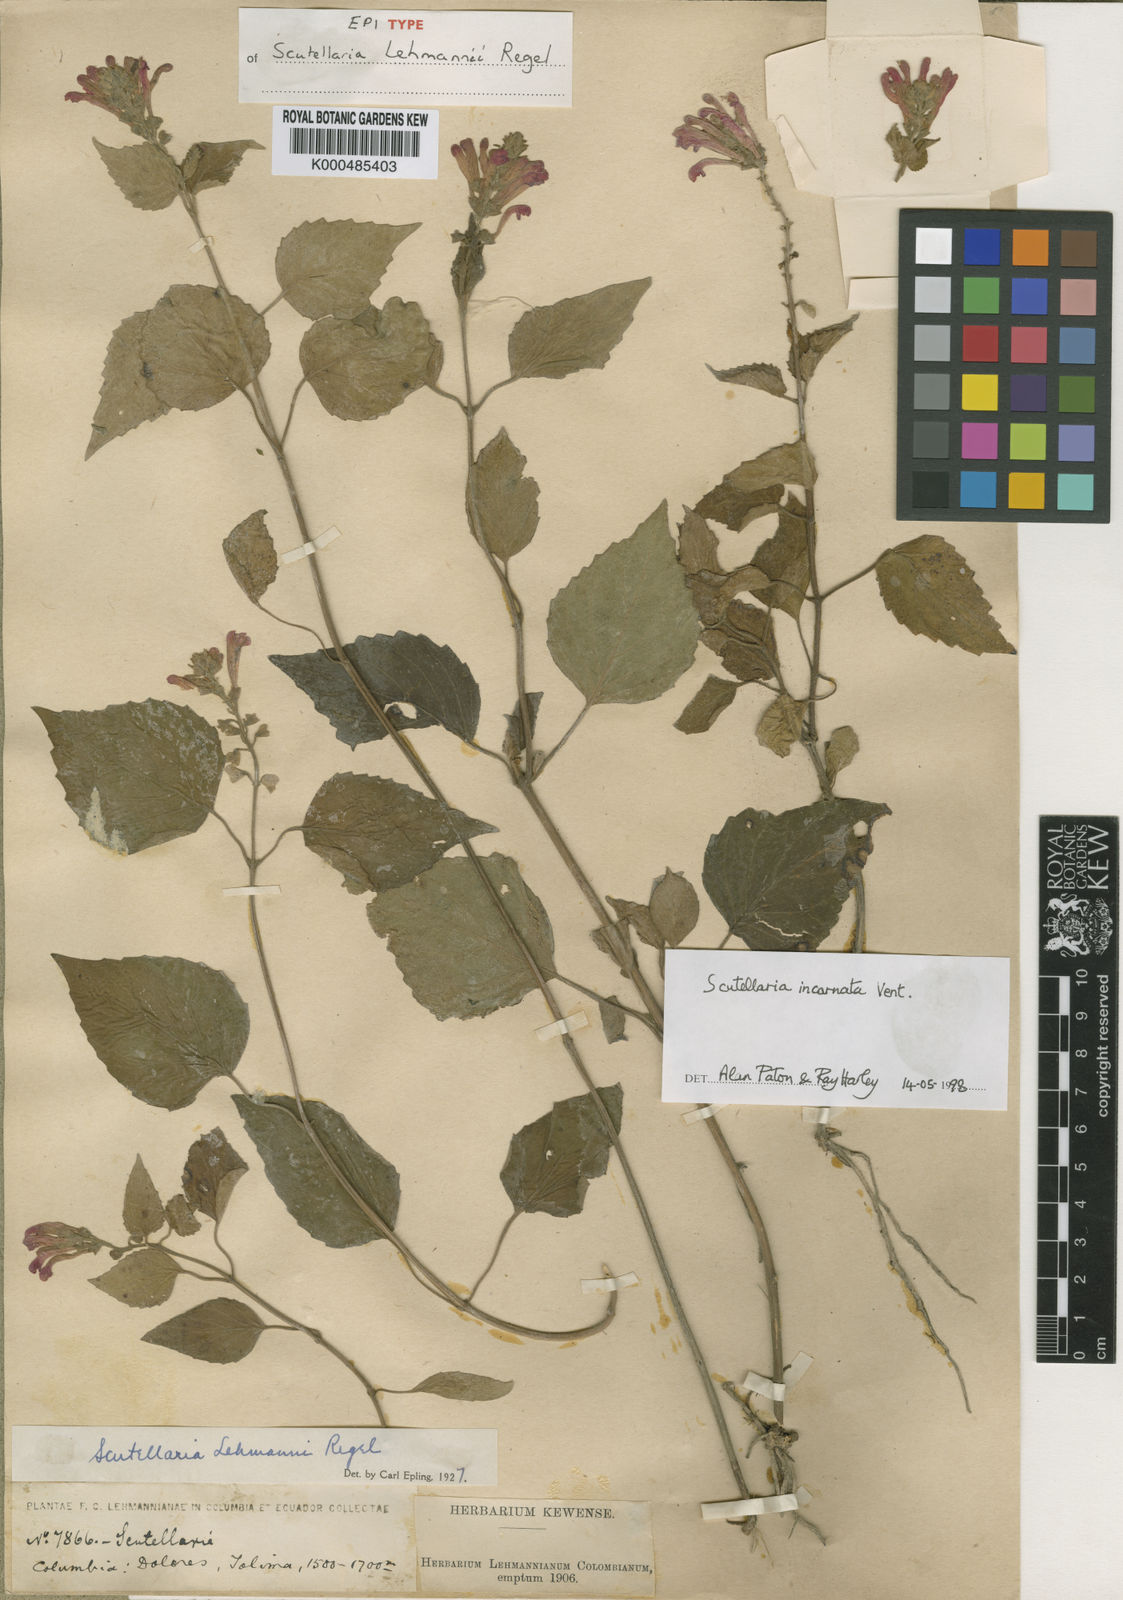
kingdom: Plantae
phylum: Tracheophyta
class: Magnoliopsida
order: Lamiales
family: Lamiaceae
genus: Scutellaria
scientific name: Scutellaria incarnata
